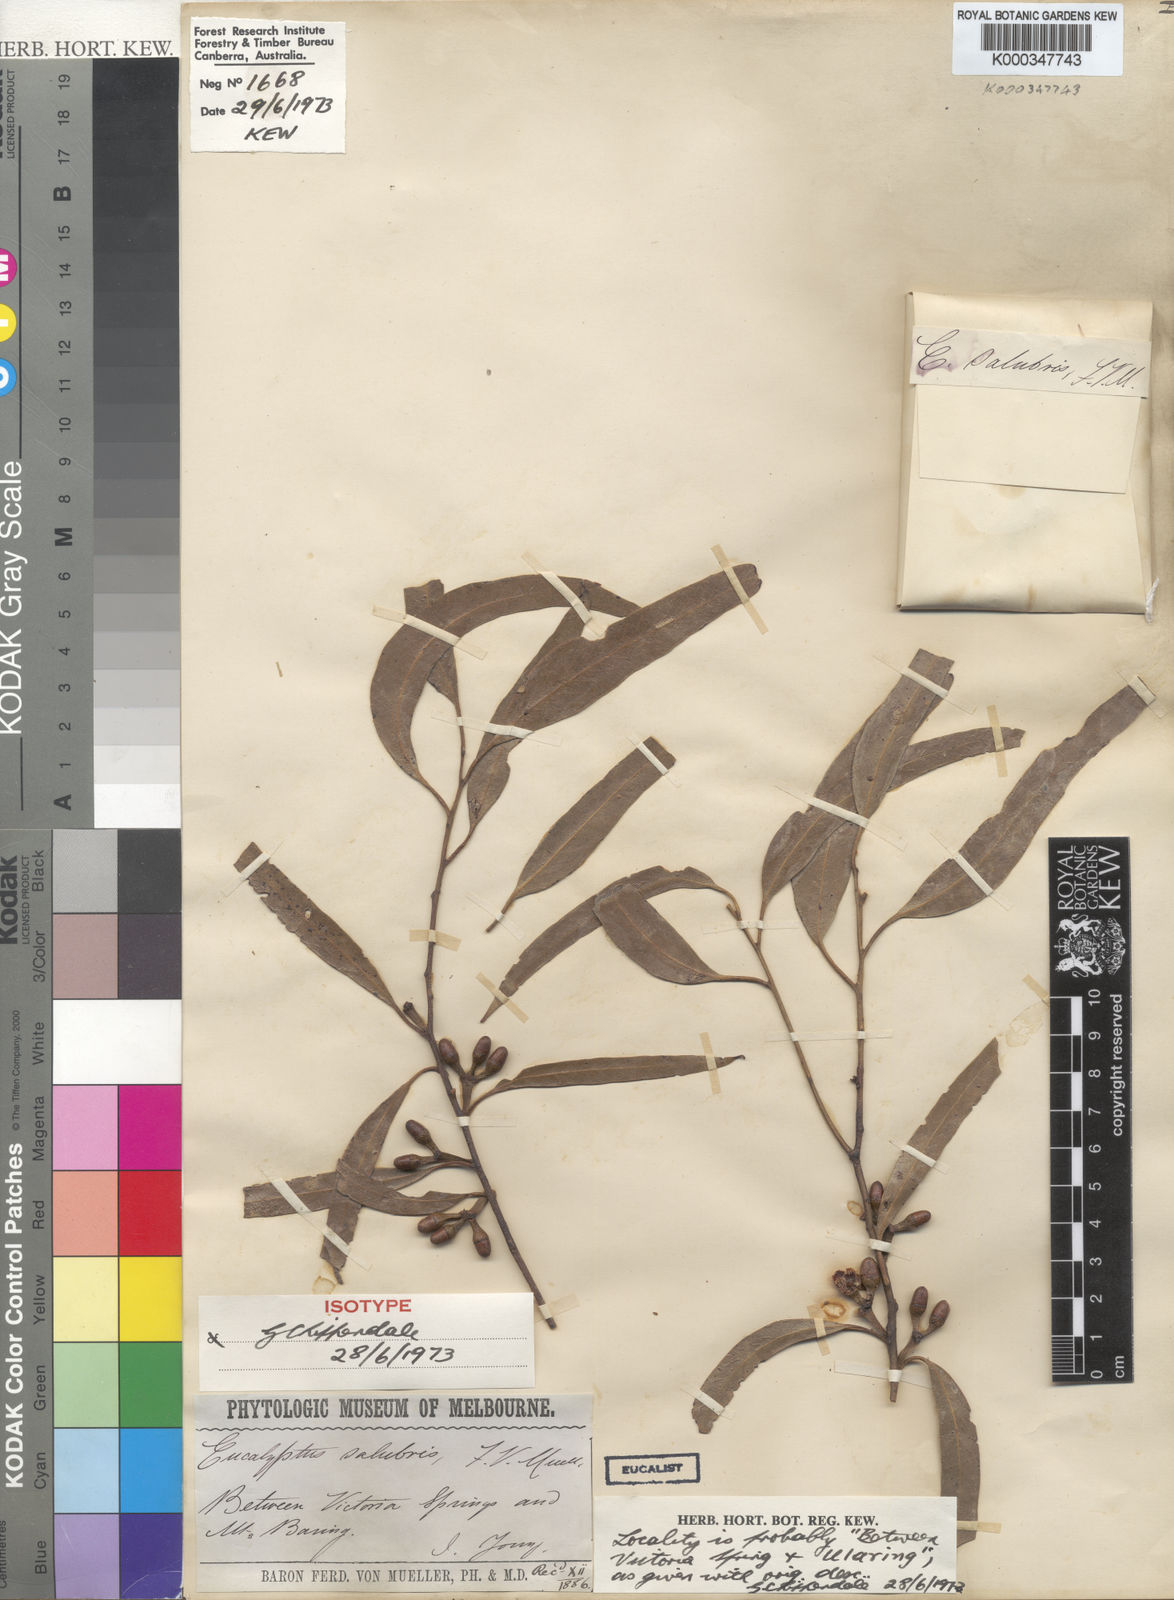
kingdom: Plantae
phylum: Tracheophyta
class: Magnoliopsida
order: Myrtales
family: Myrtaceae
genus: Eucalyptus
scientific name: Eucalyptus salubris
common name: Gimlet gum
